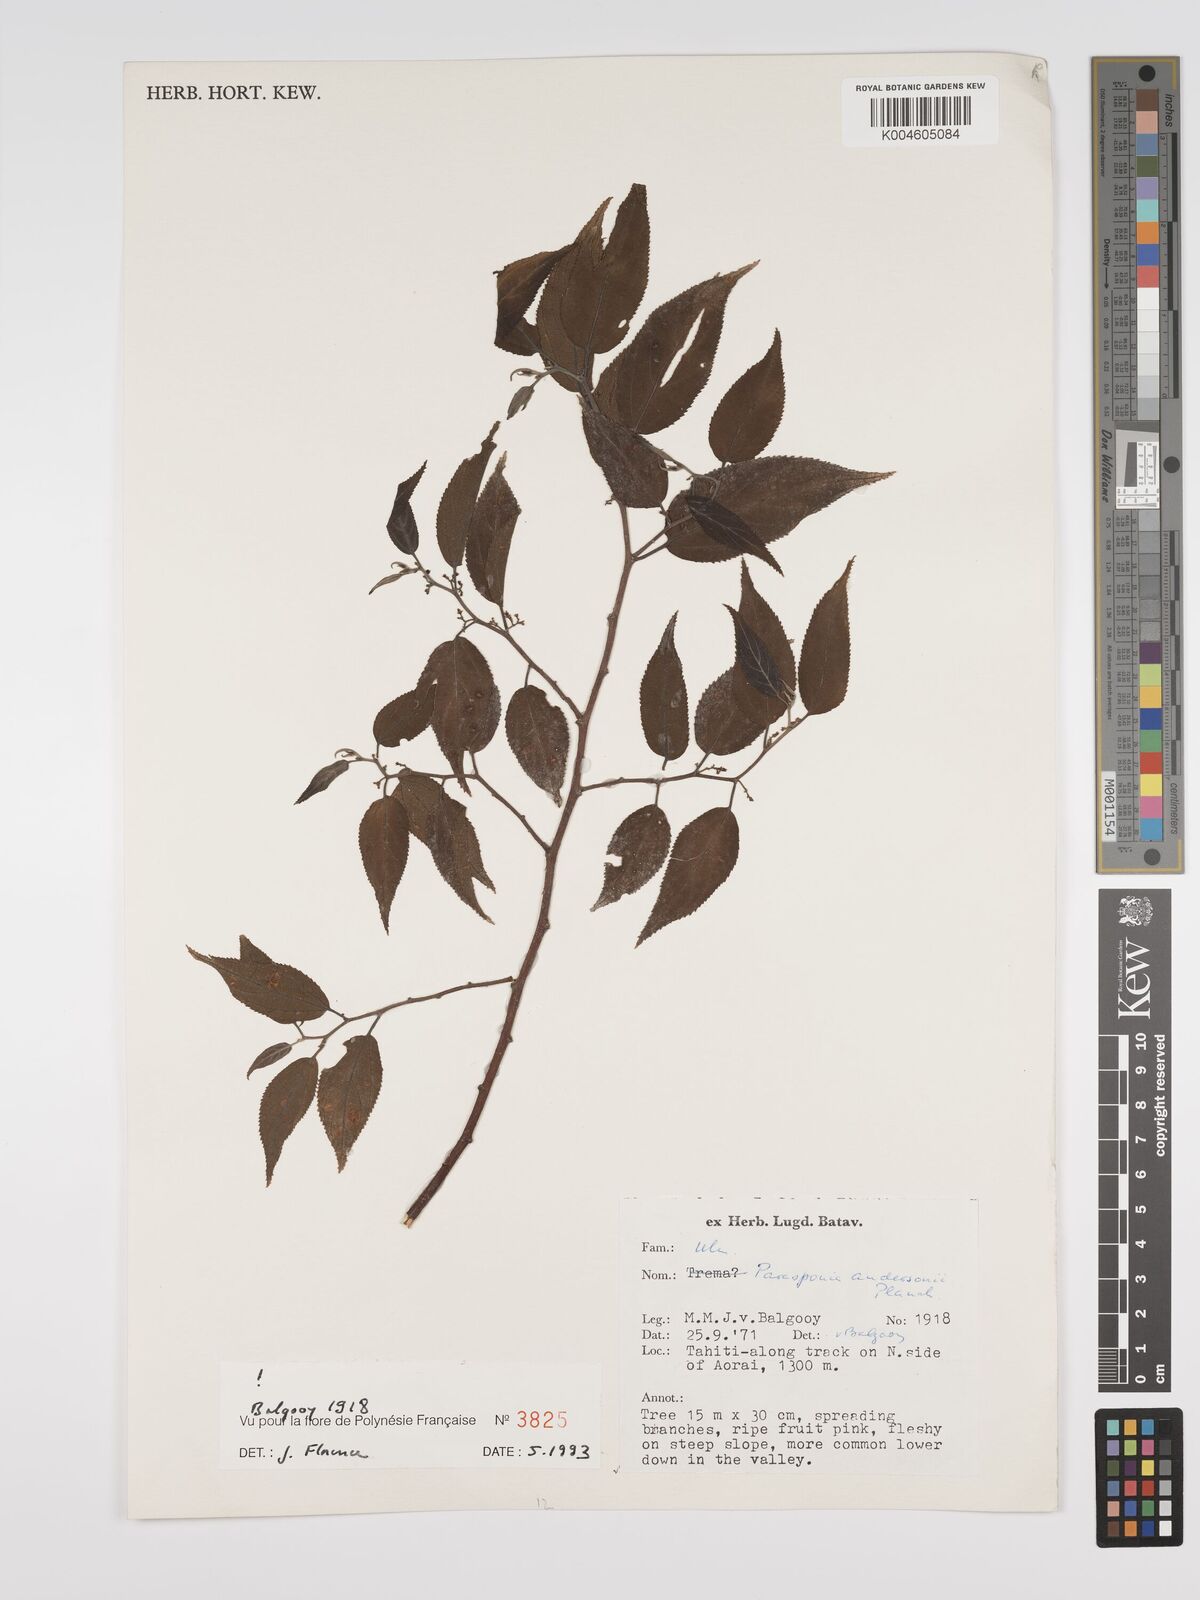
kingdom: Plantae
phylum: Tracheophyta
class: Magnoliopsida
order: Rosales
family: Cannabaceae
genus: Trema
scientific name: Trema andersonii
